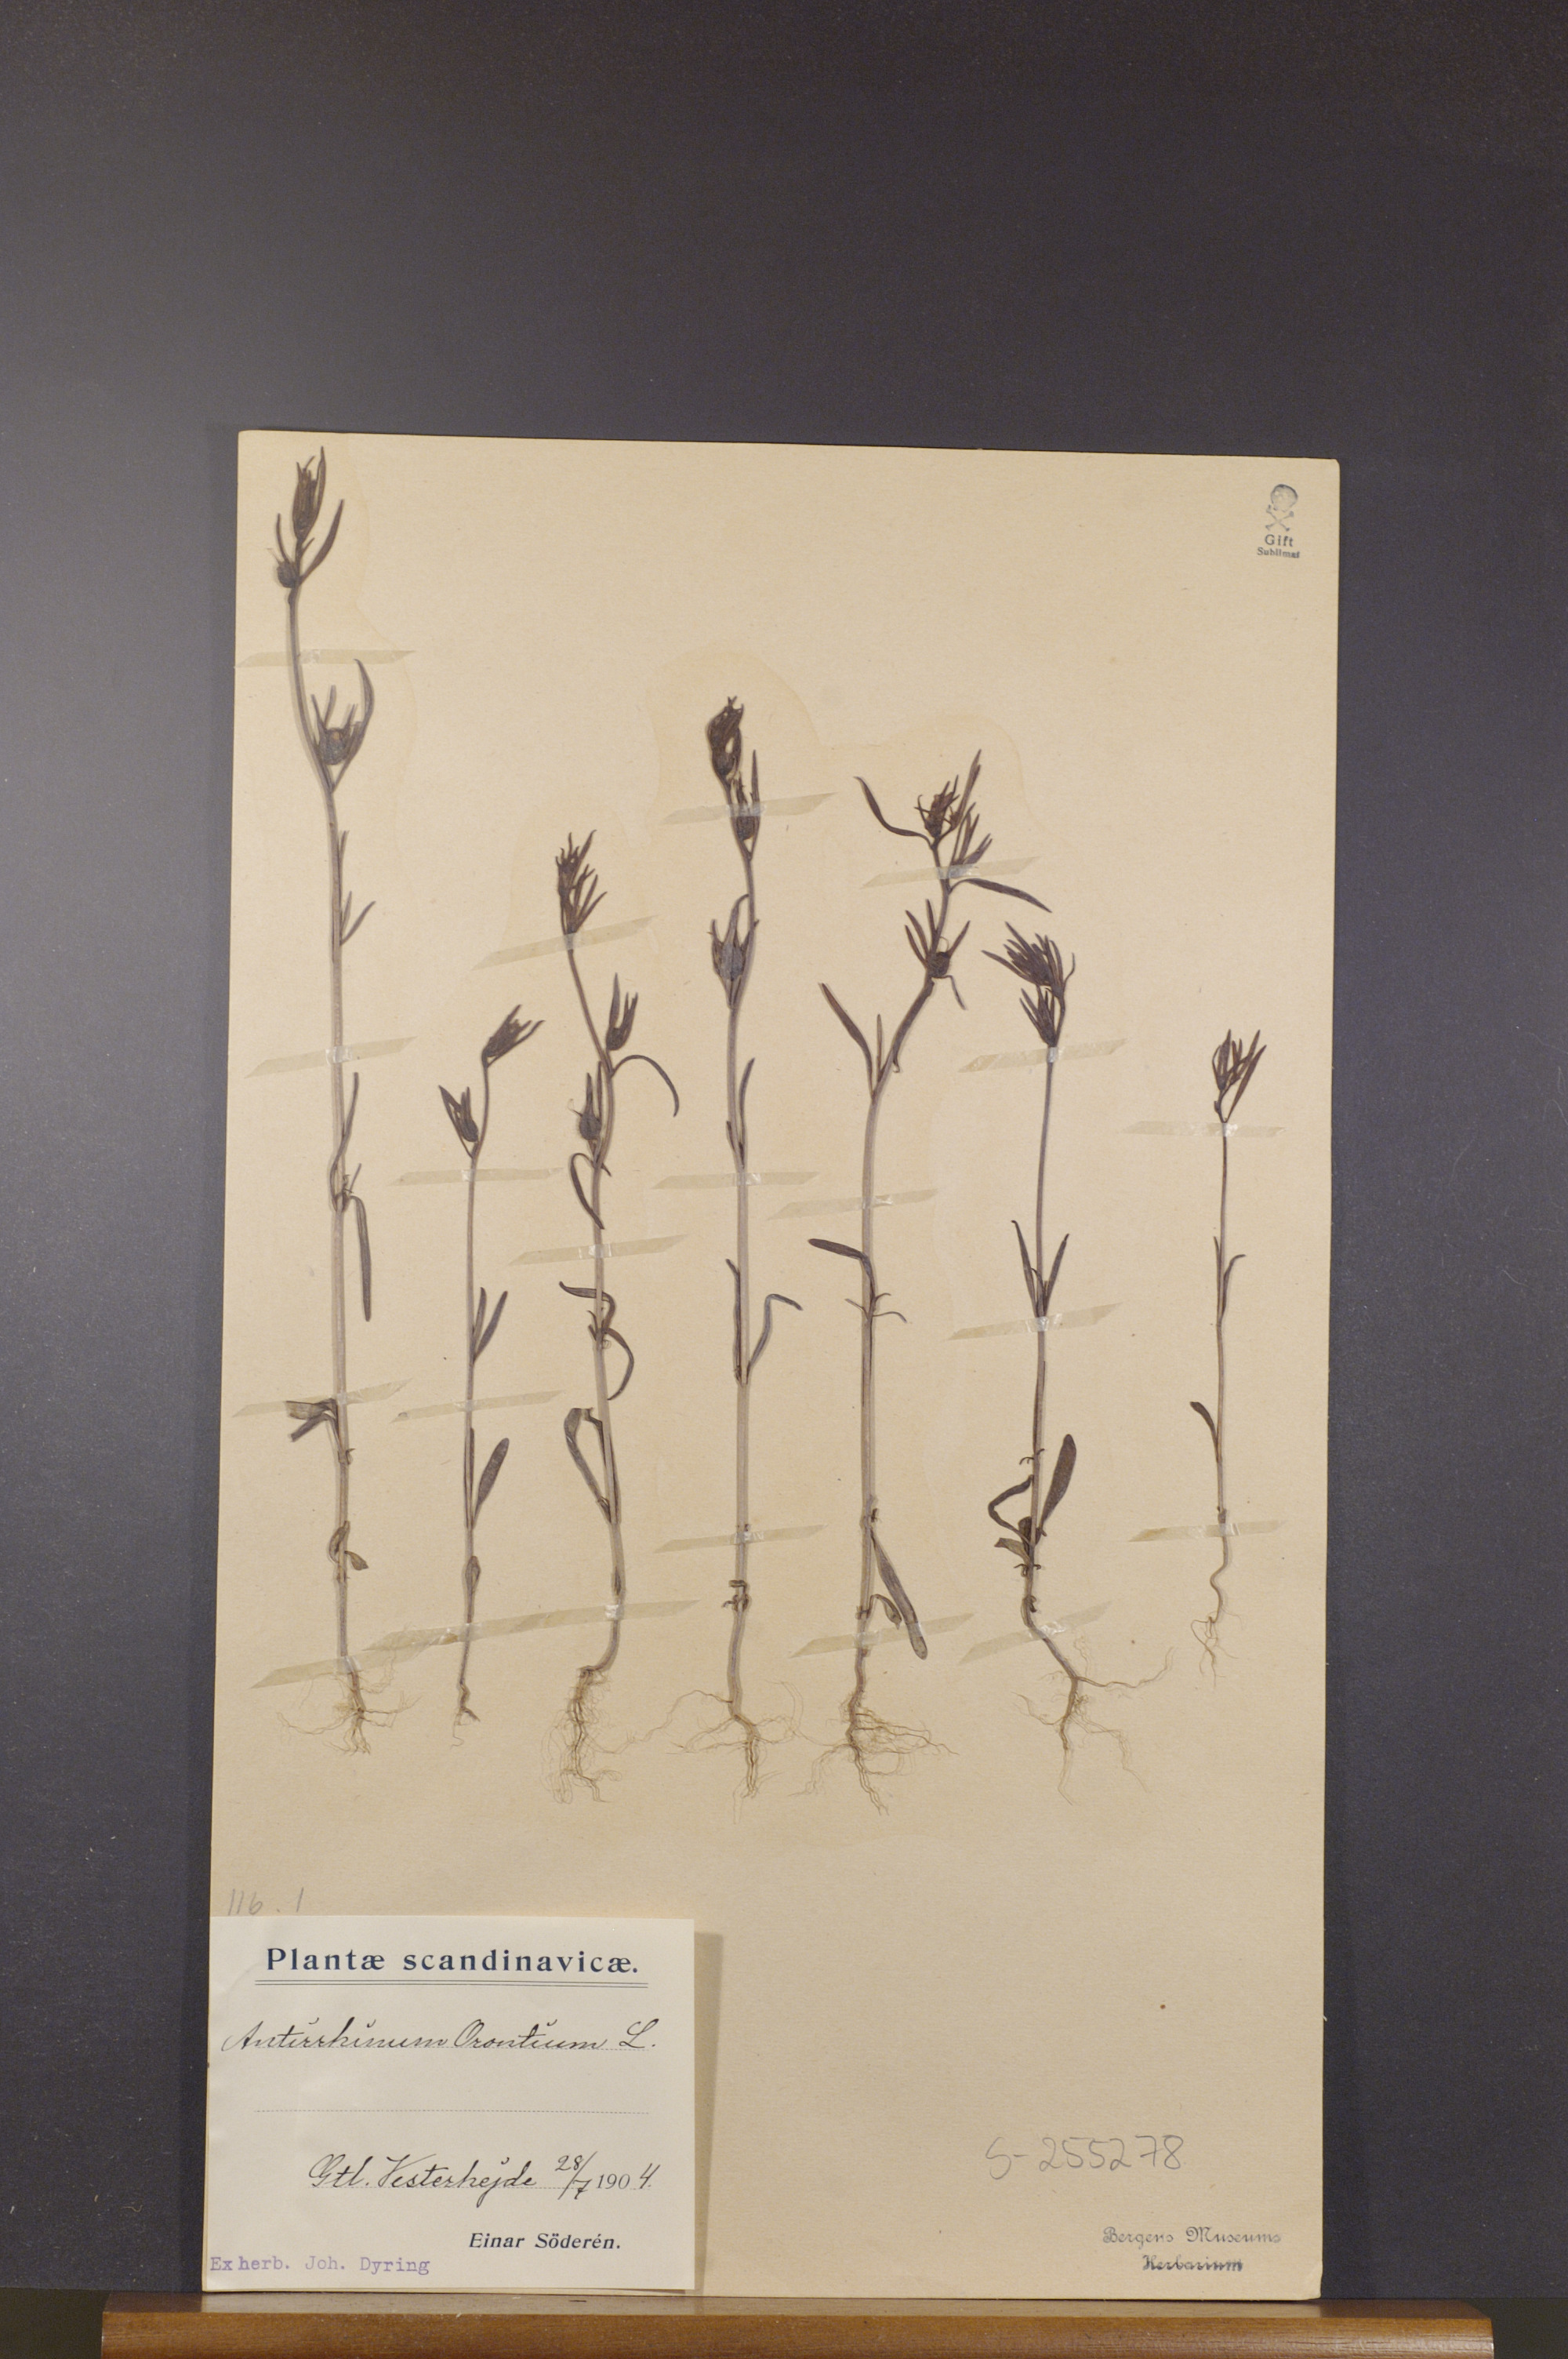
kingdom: Plantae
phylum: Tracheophyta
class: Magnoliopsida
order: Lamiales
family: Plantaginaceae
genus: Misopates
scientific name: Misopates orontium
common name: Weasel's-snout
